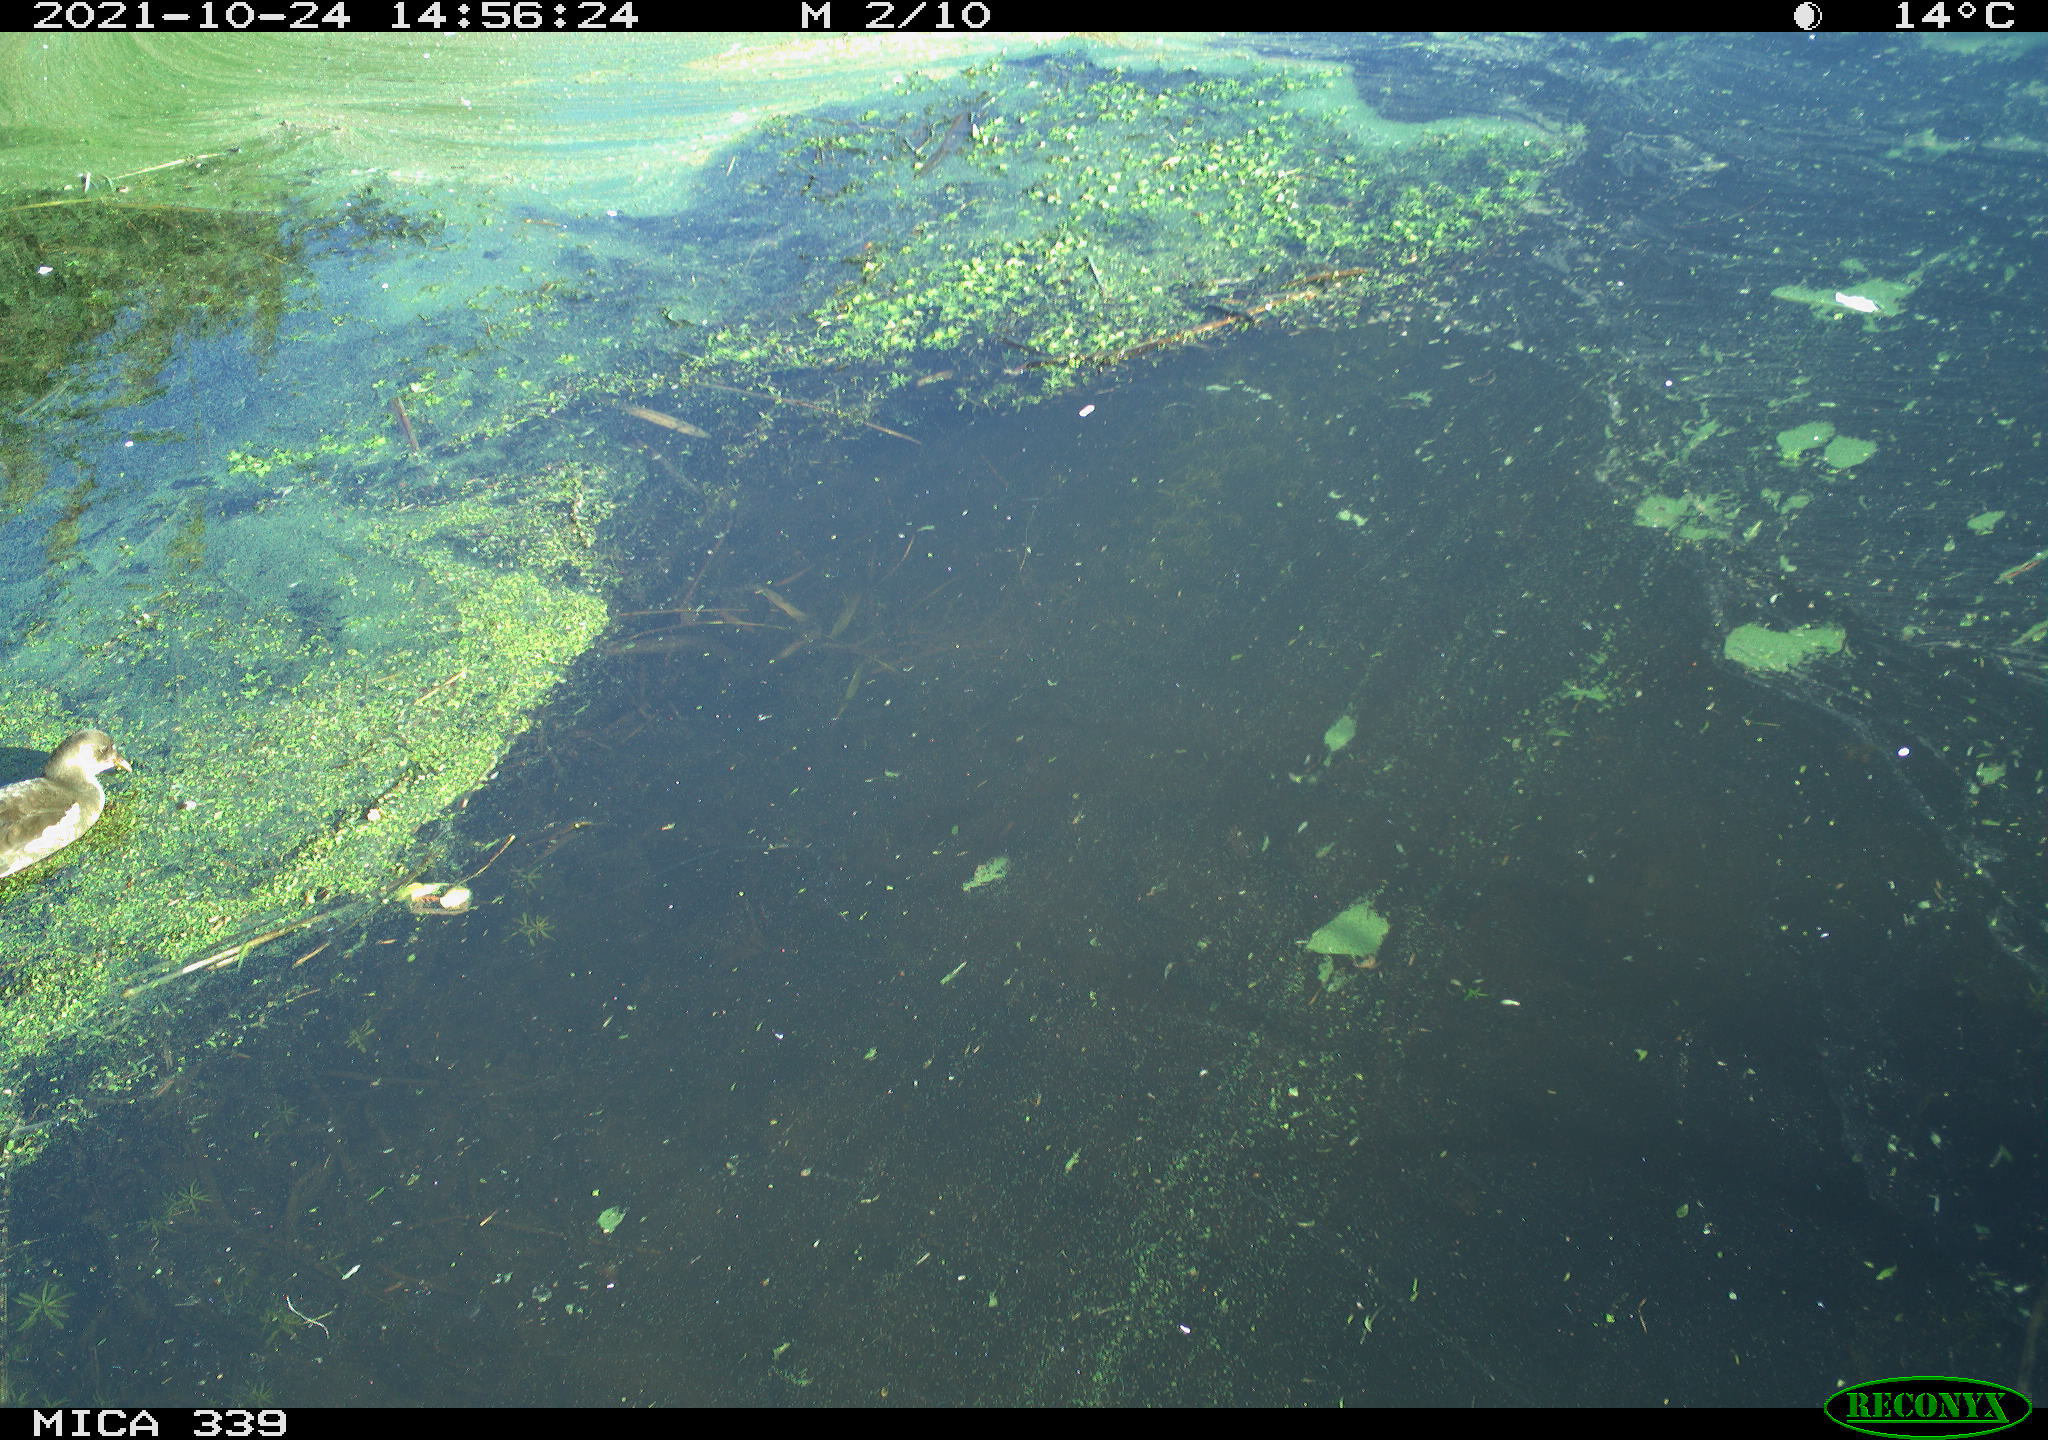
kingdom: Animalia
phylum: Chordata
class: Aves
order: Gruiformes
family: Rallidae
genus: Gallinula
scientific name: Gallinula chloropus
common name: Common moorhen
